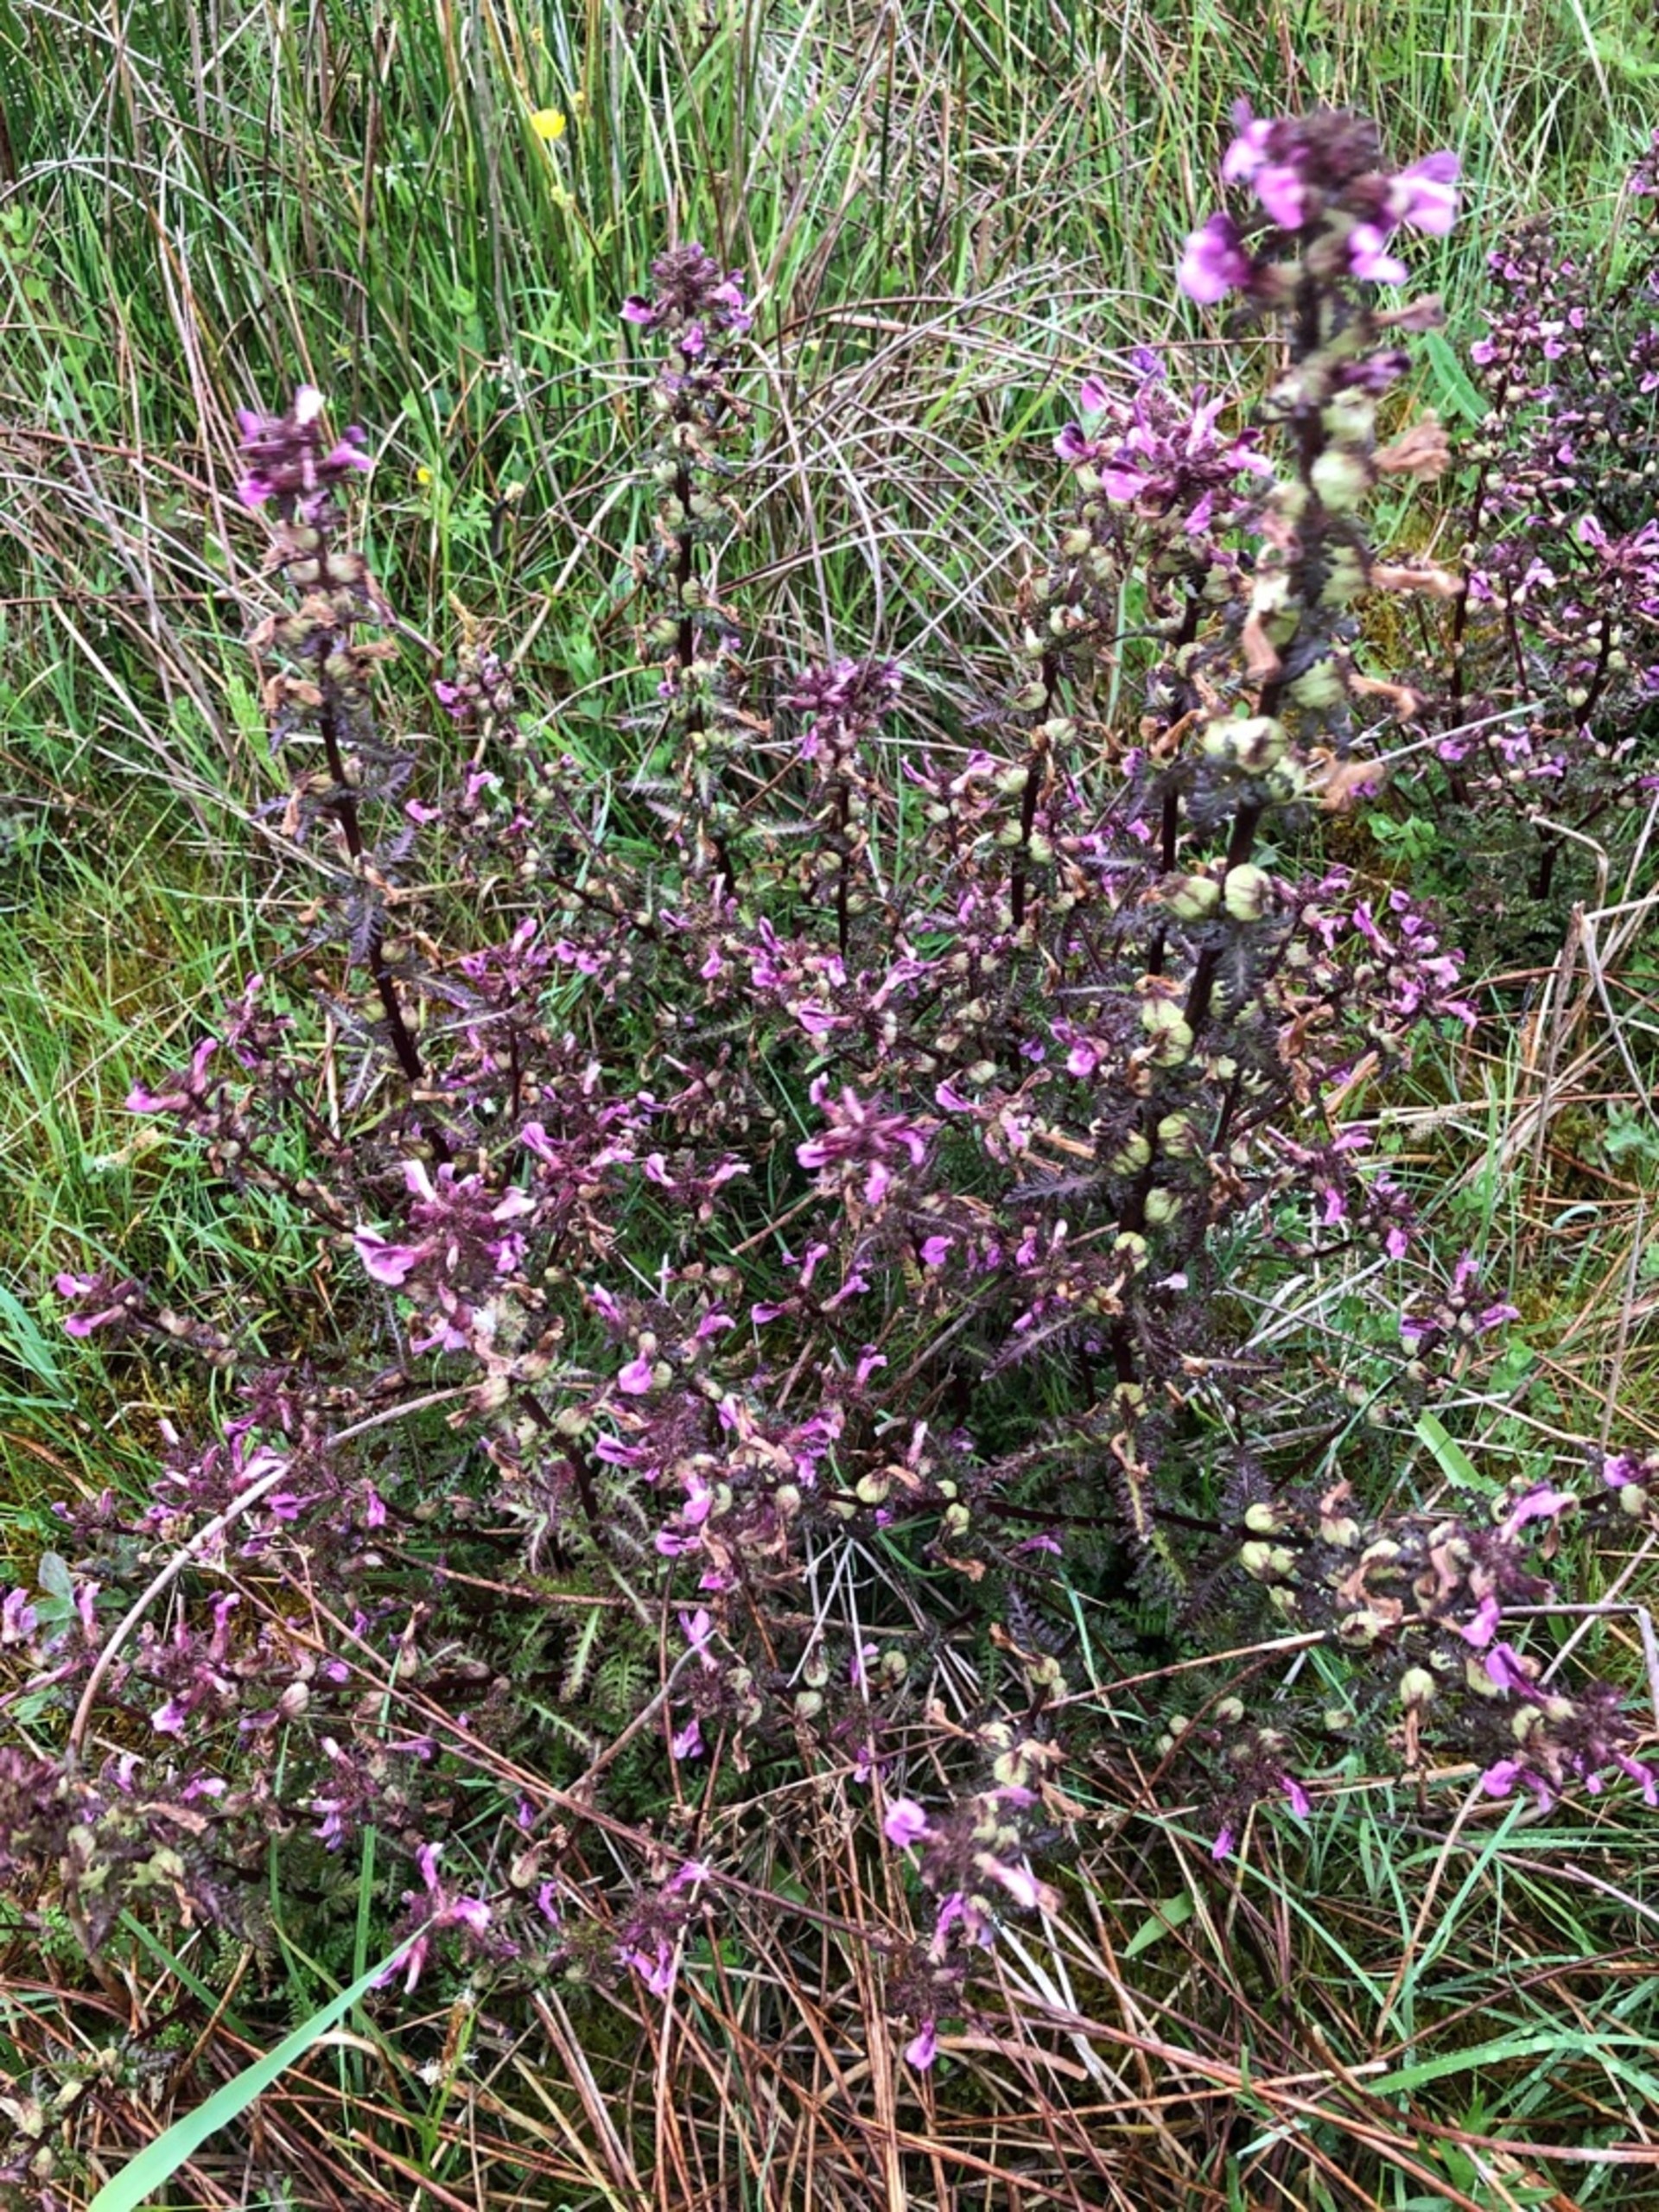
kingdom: Plantae
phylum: Tracheophyta
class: Magnoliopsida
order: Lamiales
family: Orobanchaceae
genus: Pedicularis
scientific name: Pedicularis palustris
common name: Eng-troldurt
